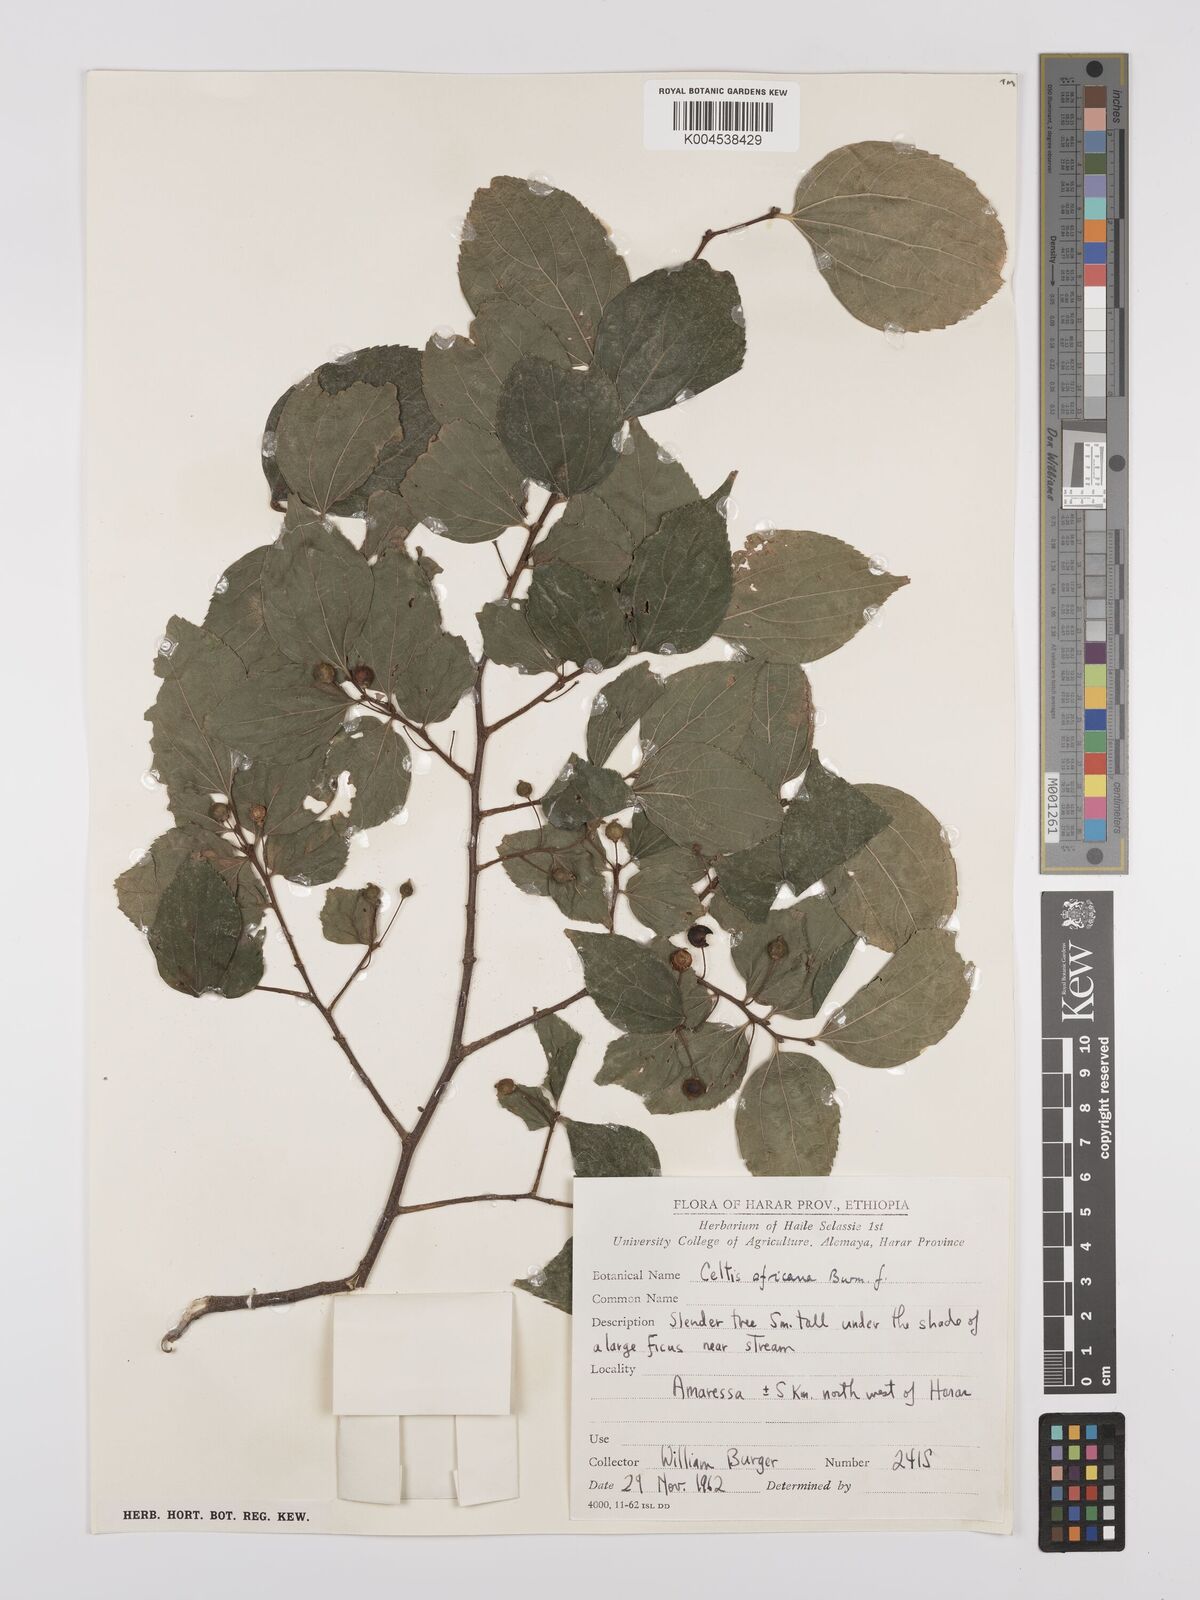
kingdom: Plantae
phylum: Tracheophyta
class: Magnoliopsida
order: Rosales
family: Cannabaceae
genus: Celtis
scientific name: Celtis africana
